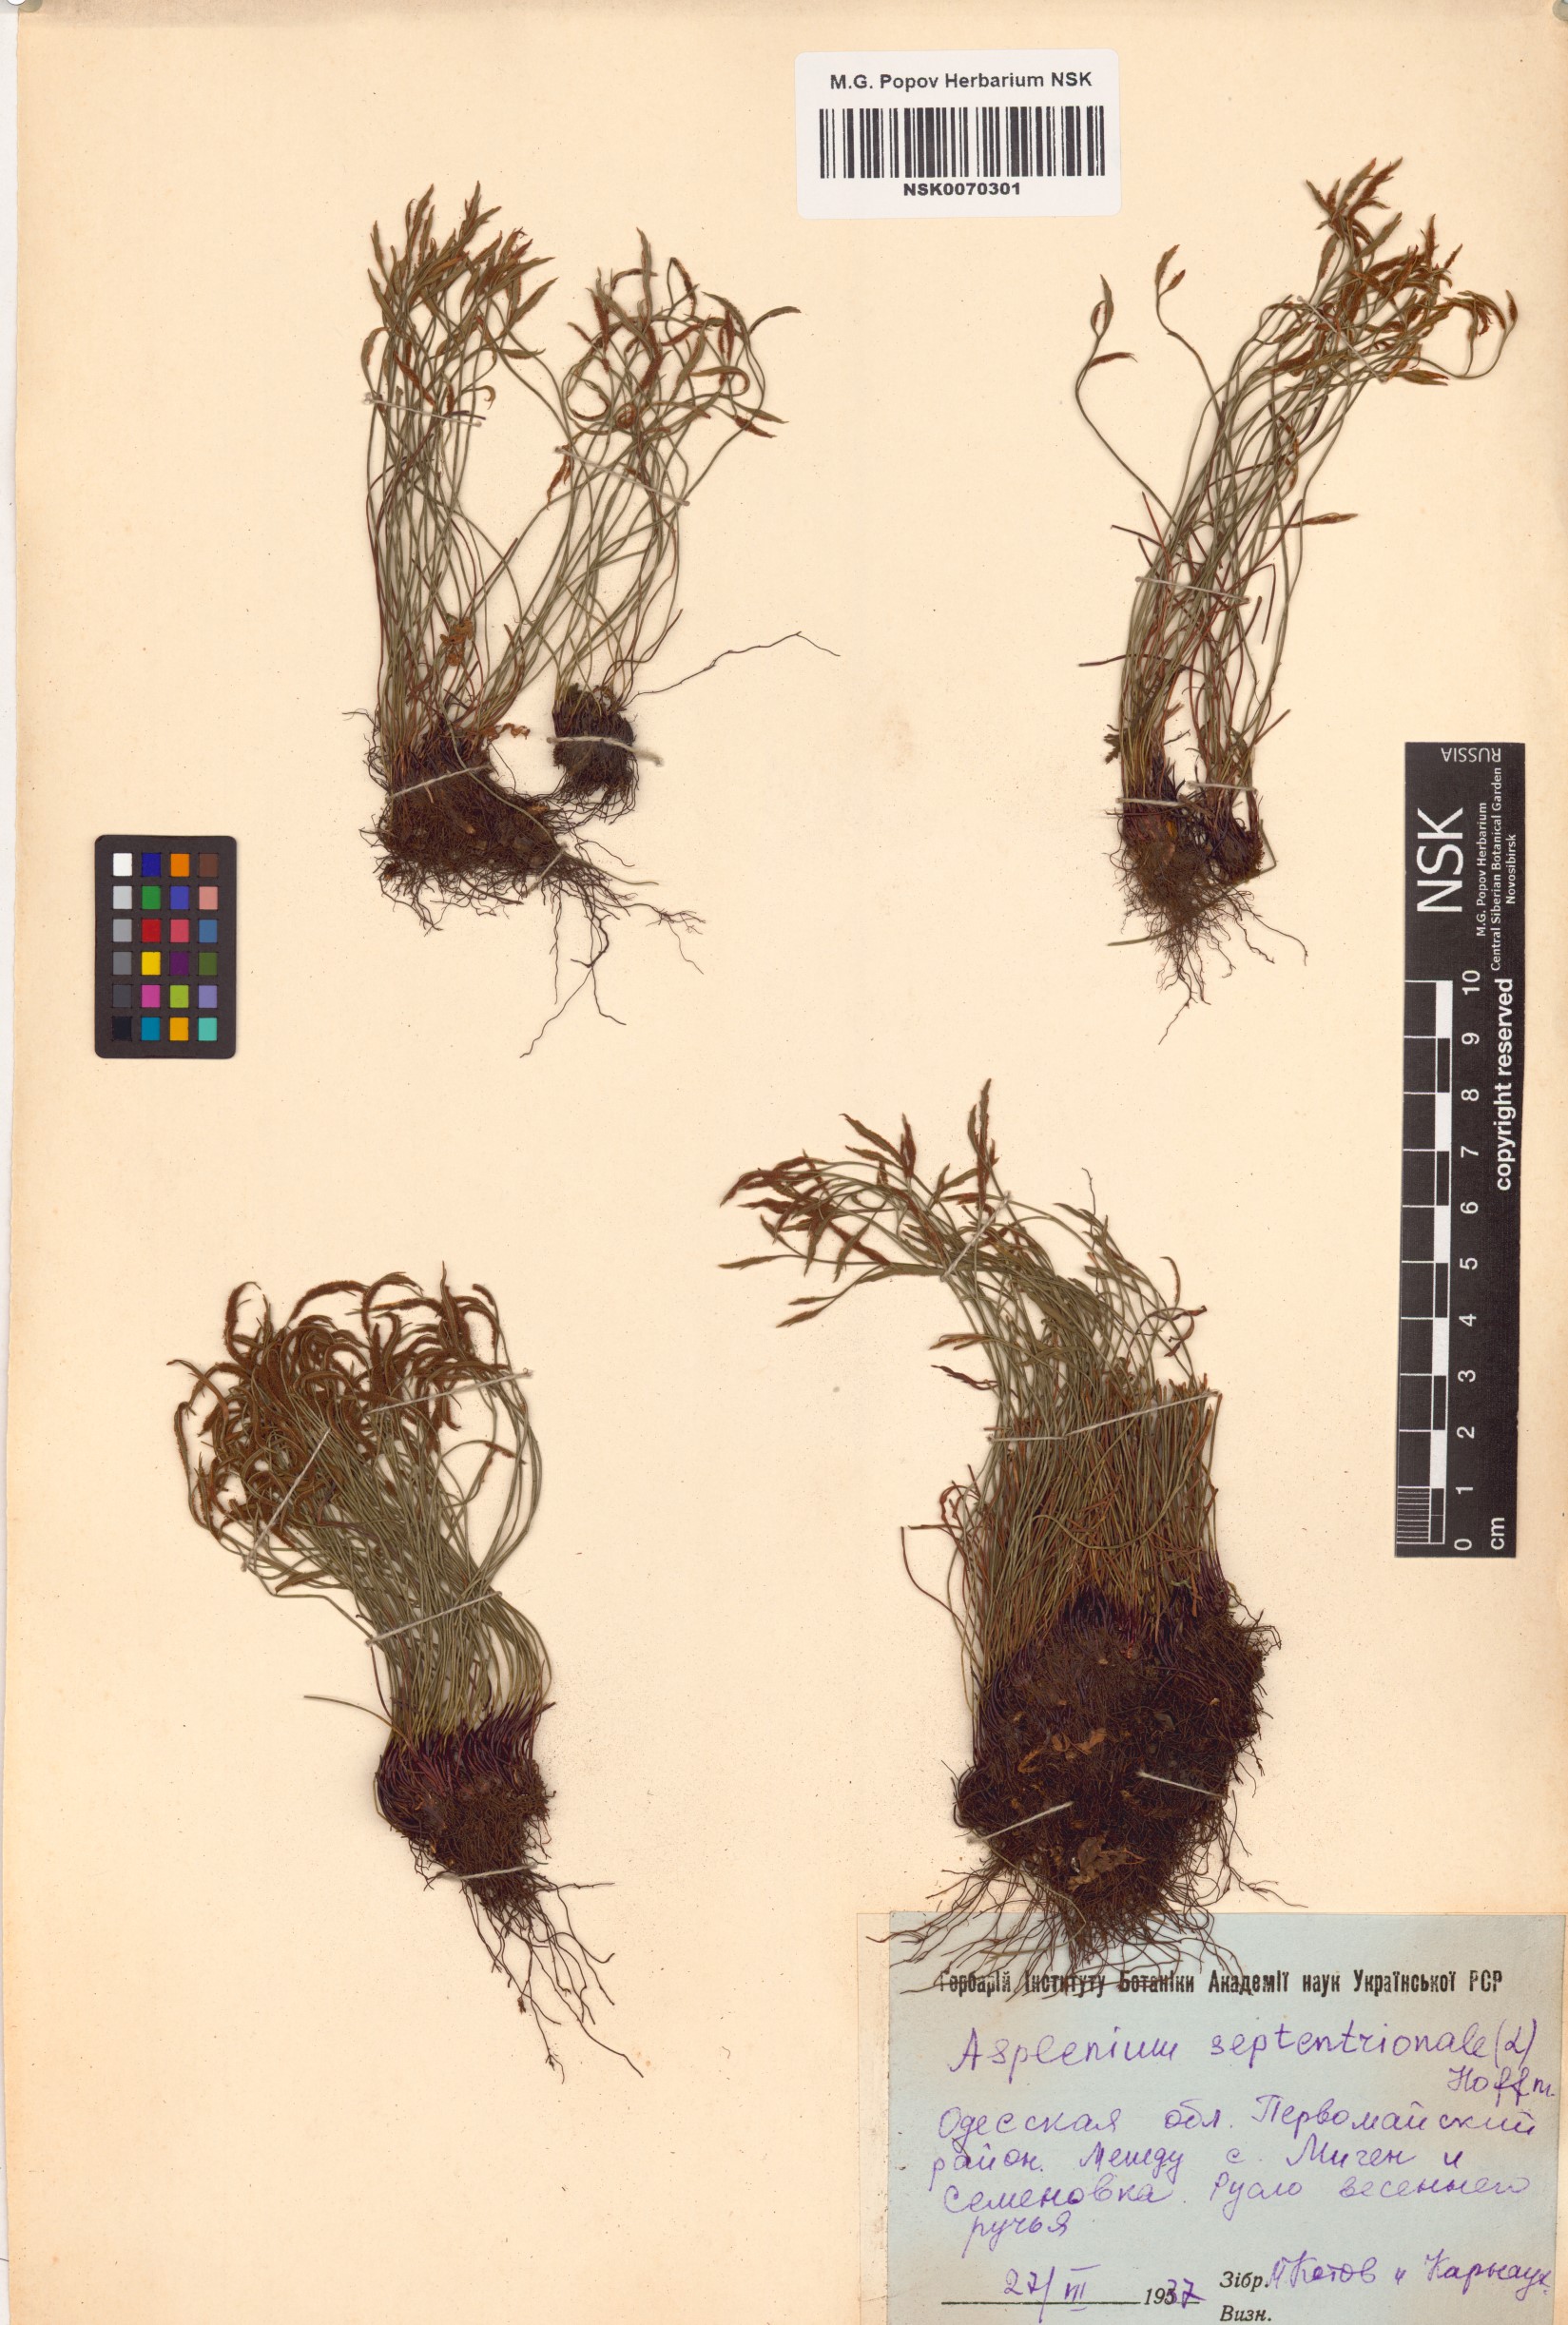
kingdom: Plantae
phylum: Tracheophyta
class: Polypodiopsida
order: Polypodiales
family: Aspleniaceae
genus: Asplenium
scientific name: Asplenium septentrionale
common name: Forked spleenwort
